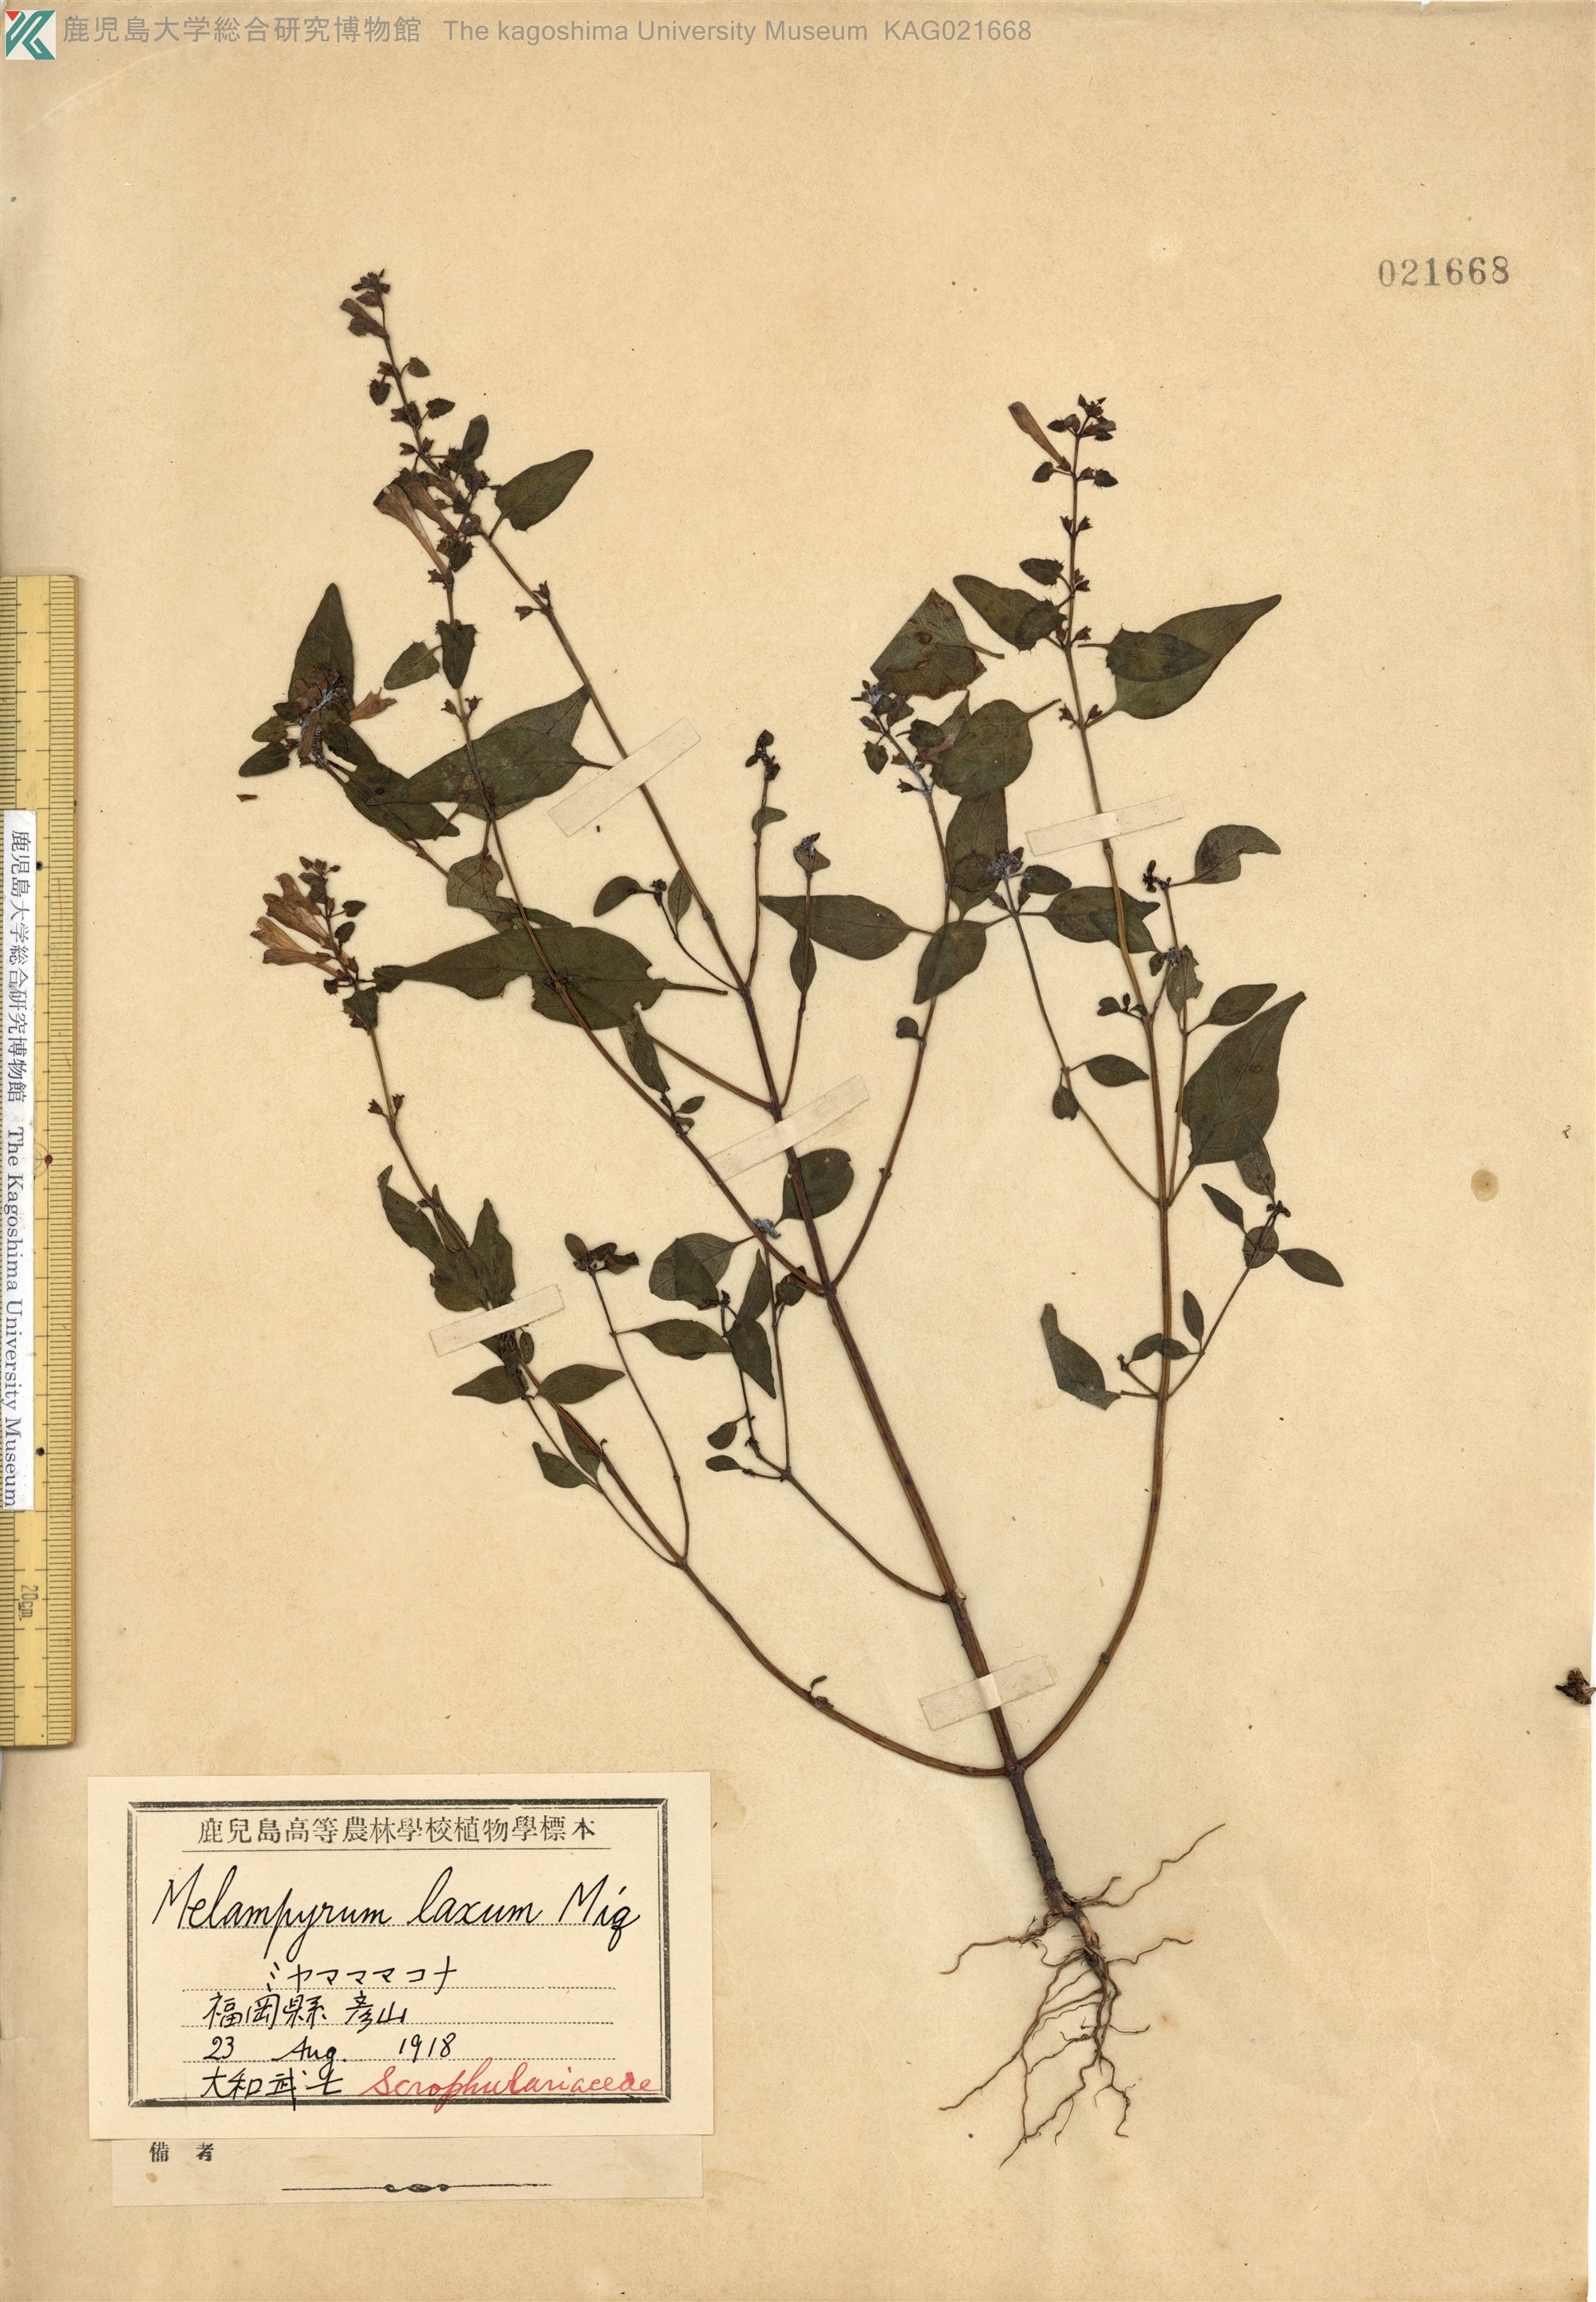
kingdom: Plantae
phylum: Tracheophyta
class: Magnoliopsida
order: Lamiales
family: Orobanchaceae
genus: Melampyrum
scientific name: Melampyrum laxum
